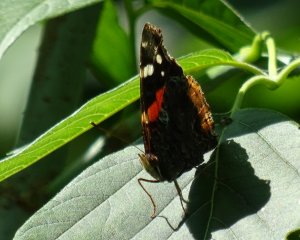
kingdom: Animalia
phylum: Arthropoda
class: Insecta
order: Lepidoptera
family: Nymphalidae
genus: Vanessa
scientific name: Vanessa atalanta
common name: Red Admiral
